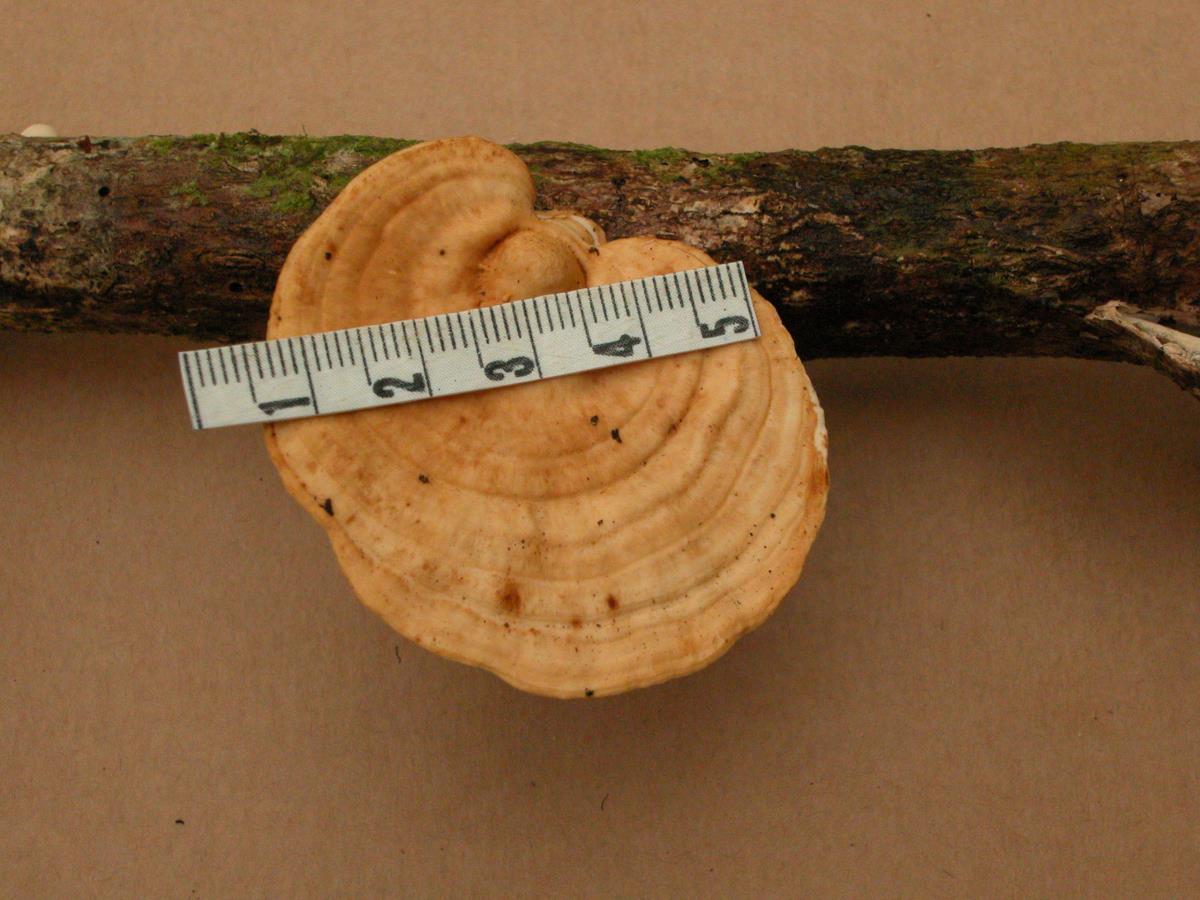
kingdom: Fungi
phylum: Basidiomycota
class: Agaricomycetes
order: Polyporales
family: Polyporaceae
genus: Microporus
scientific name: Microporus
